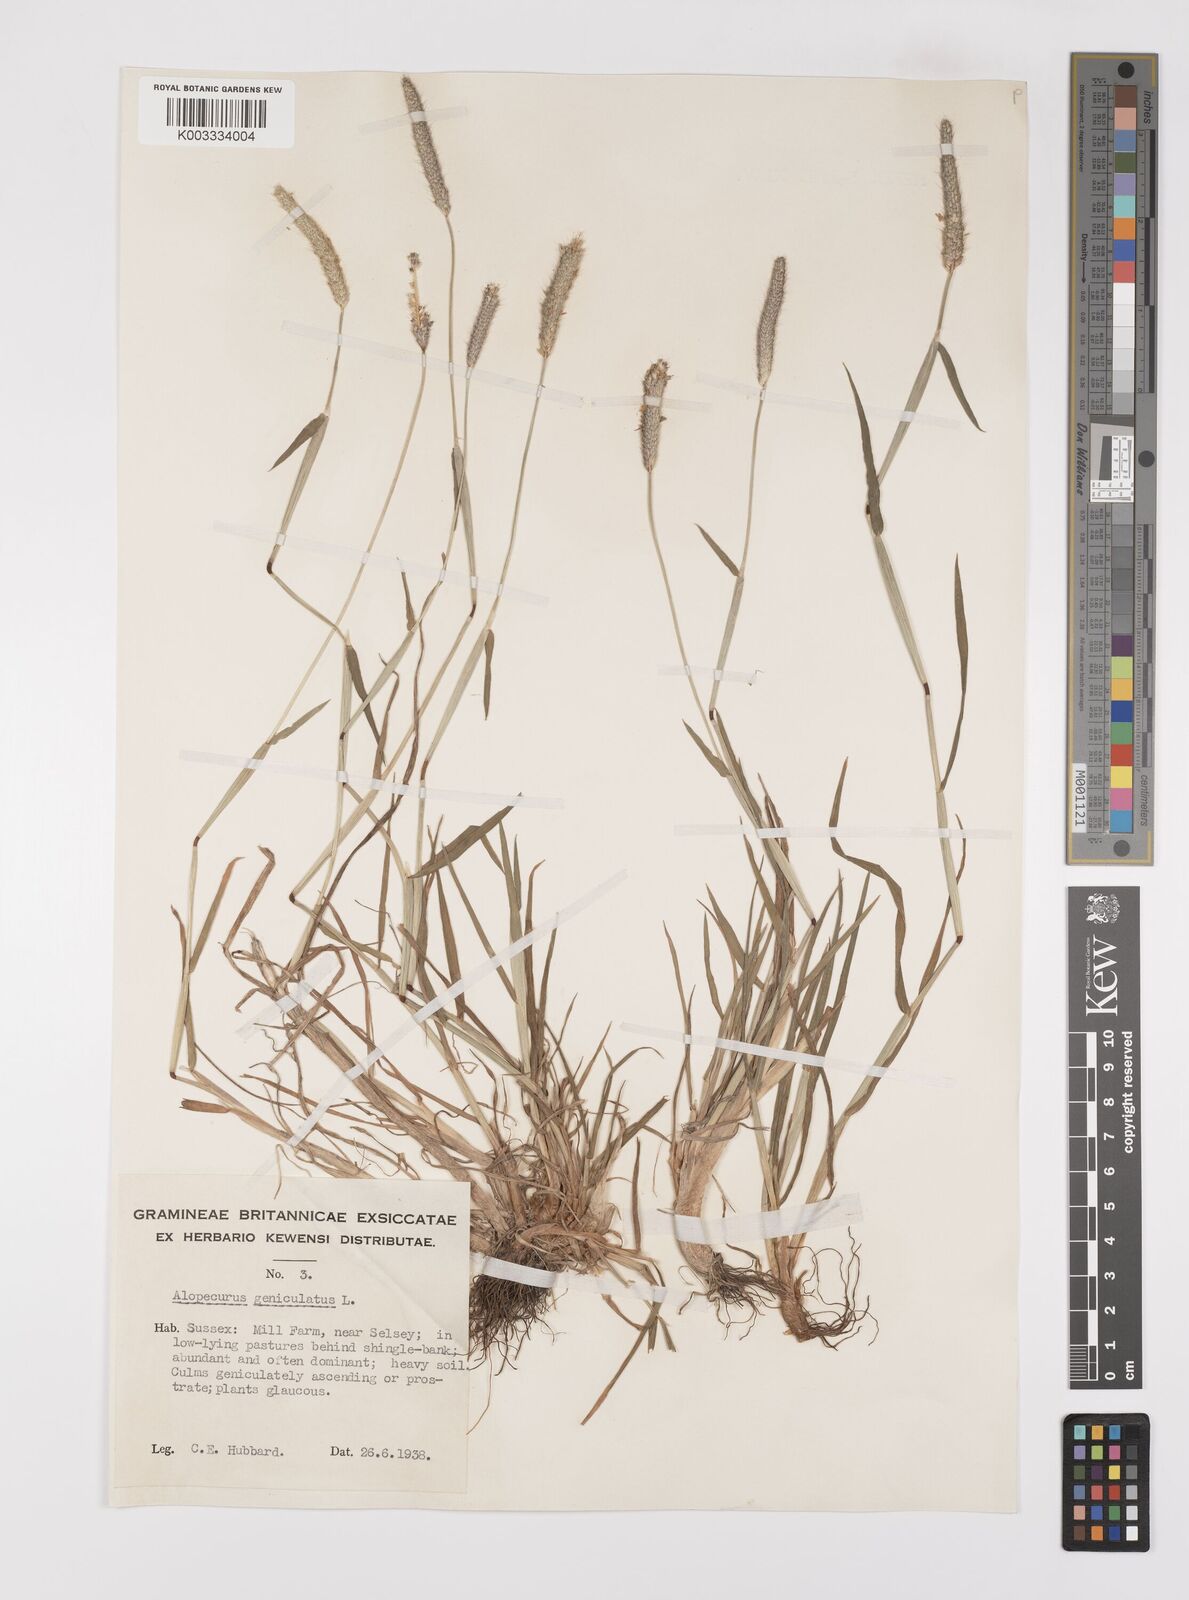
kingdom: Plantae
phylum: Tracheophyta
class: Liliopsida
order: Poales
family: Poaceae
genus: Alopecurus
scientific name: Alopecurus geniculatus
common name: Water foxtail
